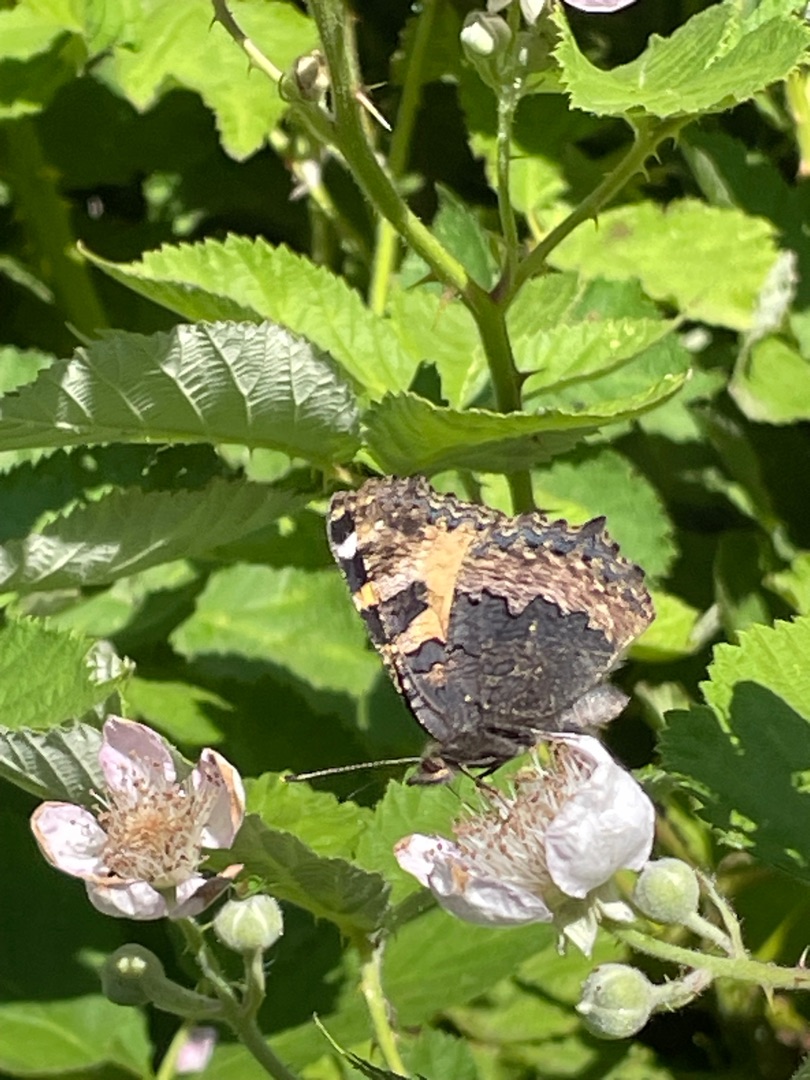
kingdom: Animalia
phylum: Arthropoda
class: Insecta
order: Lepidoptera
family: Nymphalidae
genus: Aglais
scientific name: Aglais urticae
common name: Nældens takvinge
